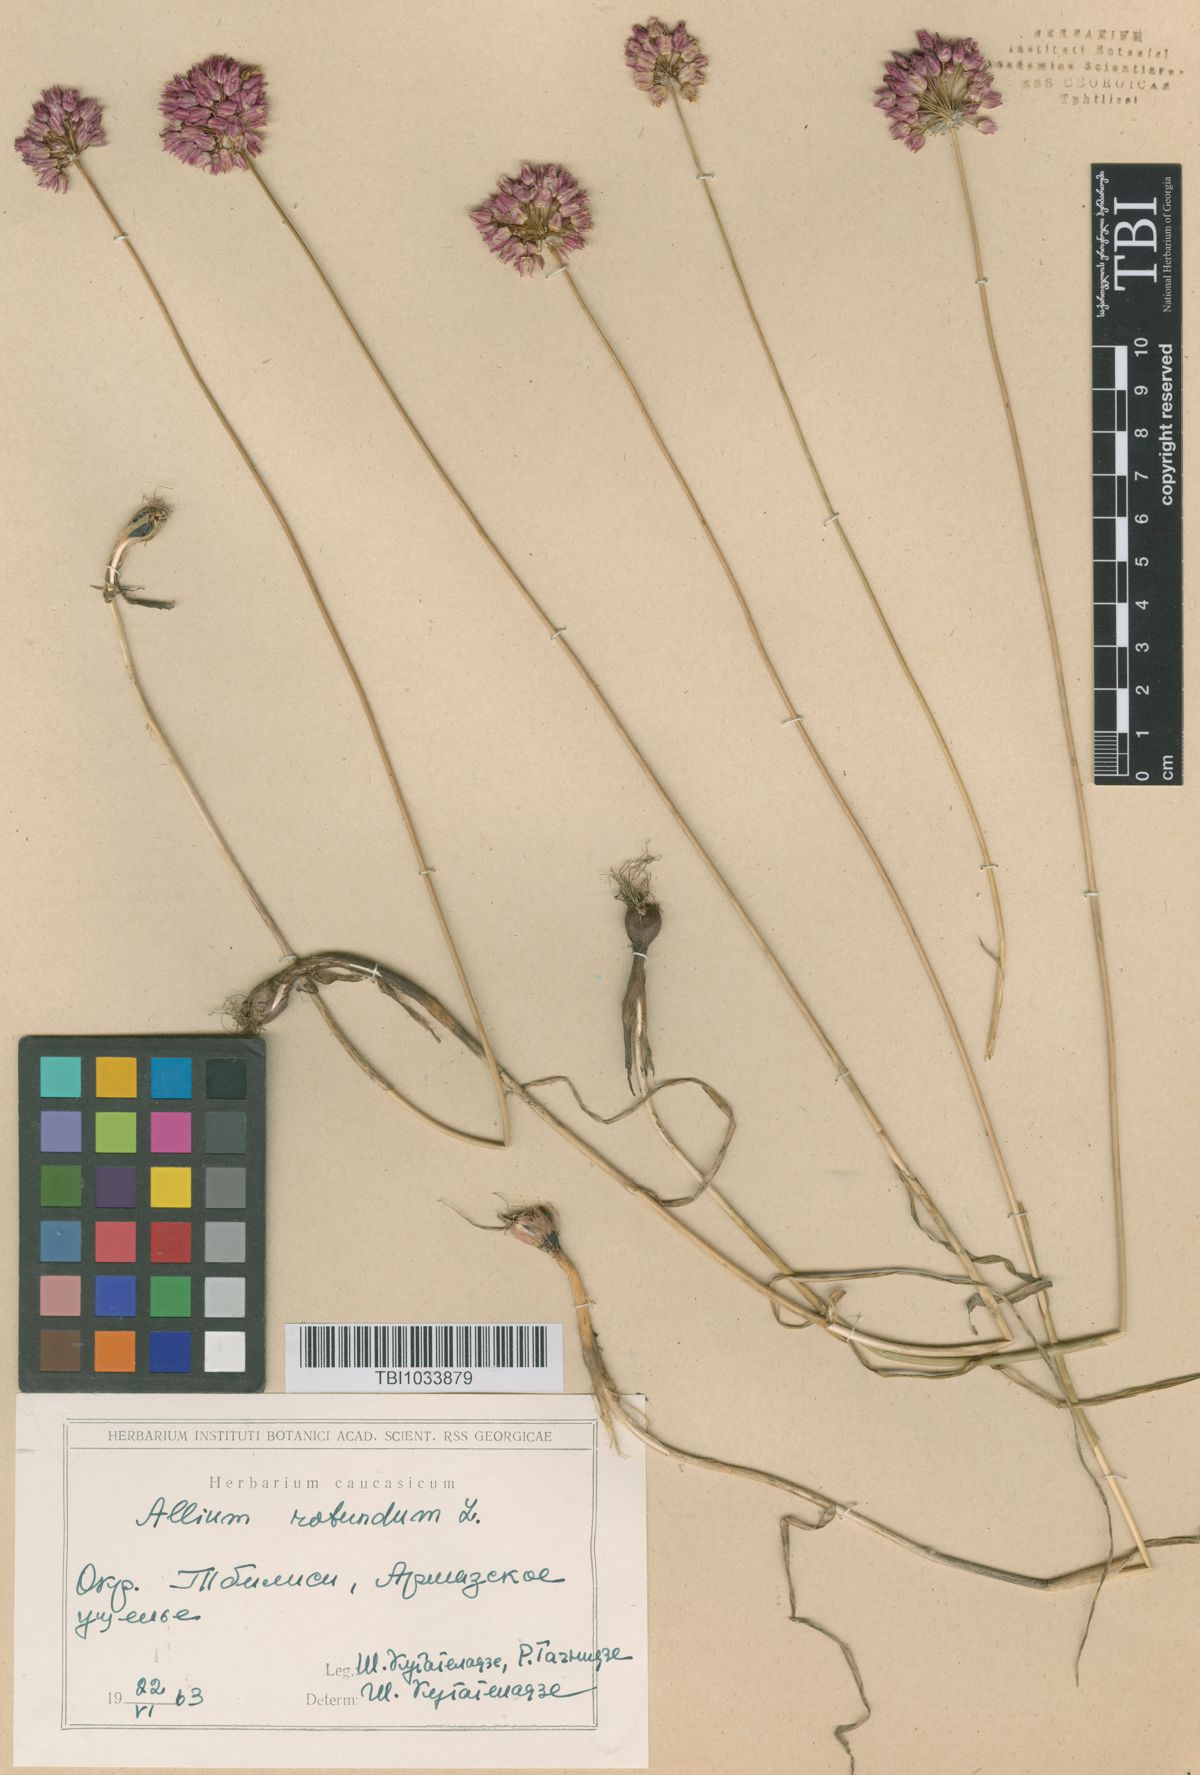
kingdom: Plantae
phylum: Tracheophyta
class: Liliopsida
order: Asparagales
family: Amaryllidaceae
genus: Allium
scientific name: Allium rotundum
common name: Sand leek
